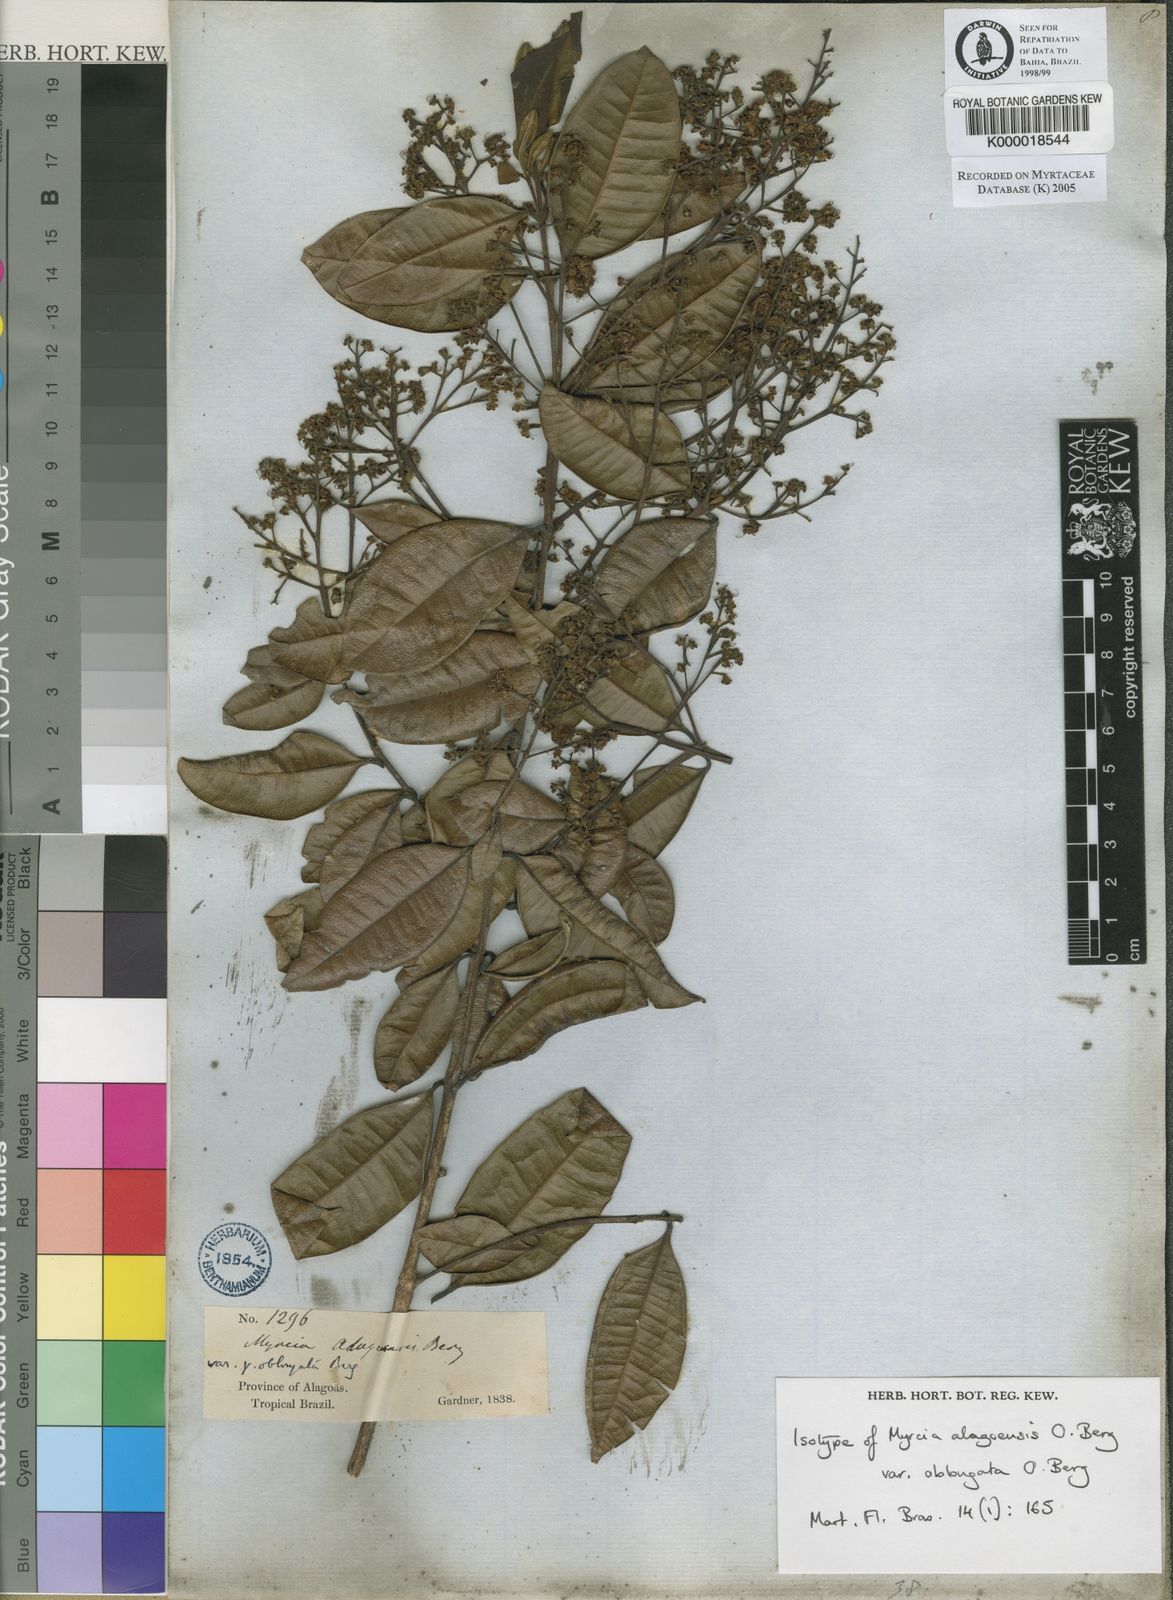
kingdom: Plantae
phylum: Tracheophyta
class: Magnoliopsida
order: Myrtales
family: Myrtaceae
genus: Myrcia
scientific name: Myrcia splendens
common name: Surinam cherry
